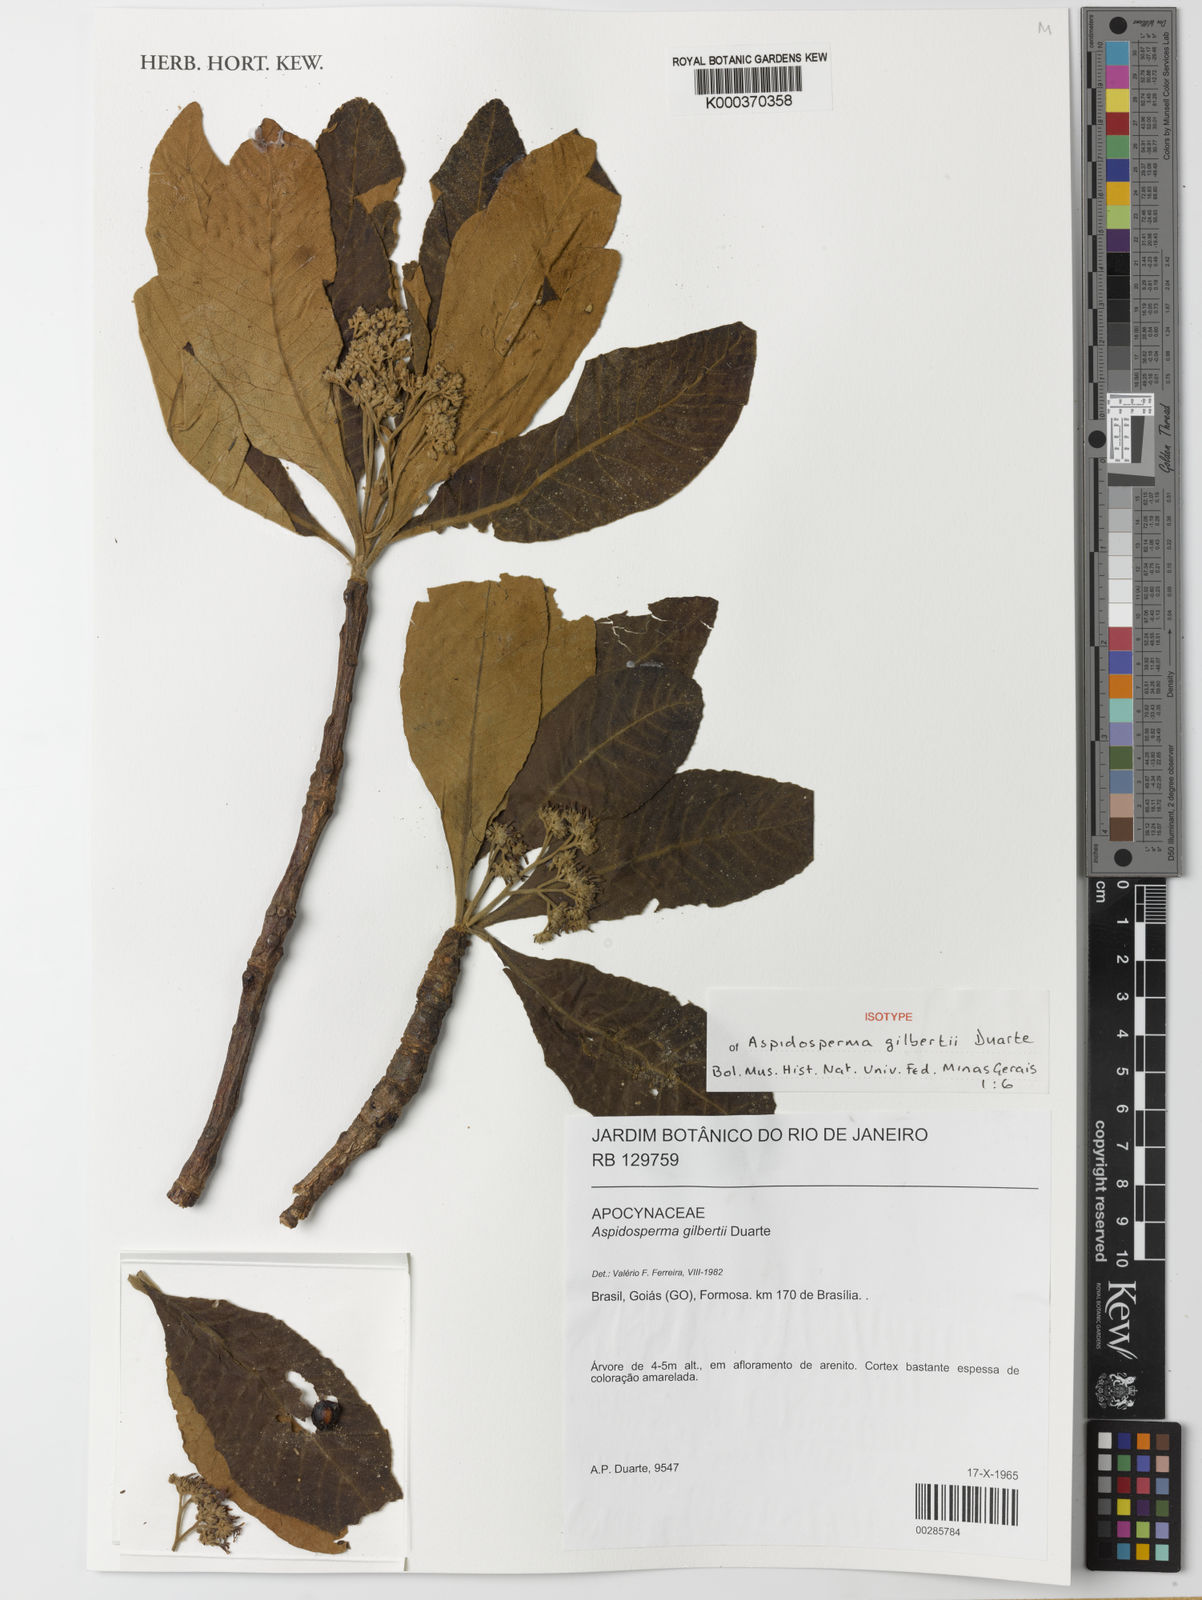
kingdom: Plantae
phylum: Tracheophyta
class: Magnoliopsida
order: Gentianales
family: Apocynaceae
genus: Aspidosperma
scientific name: Aspidosperma gilbertii
